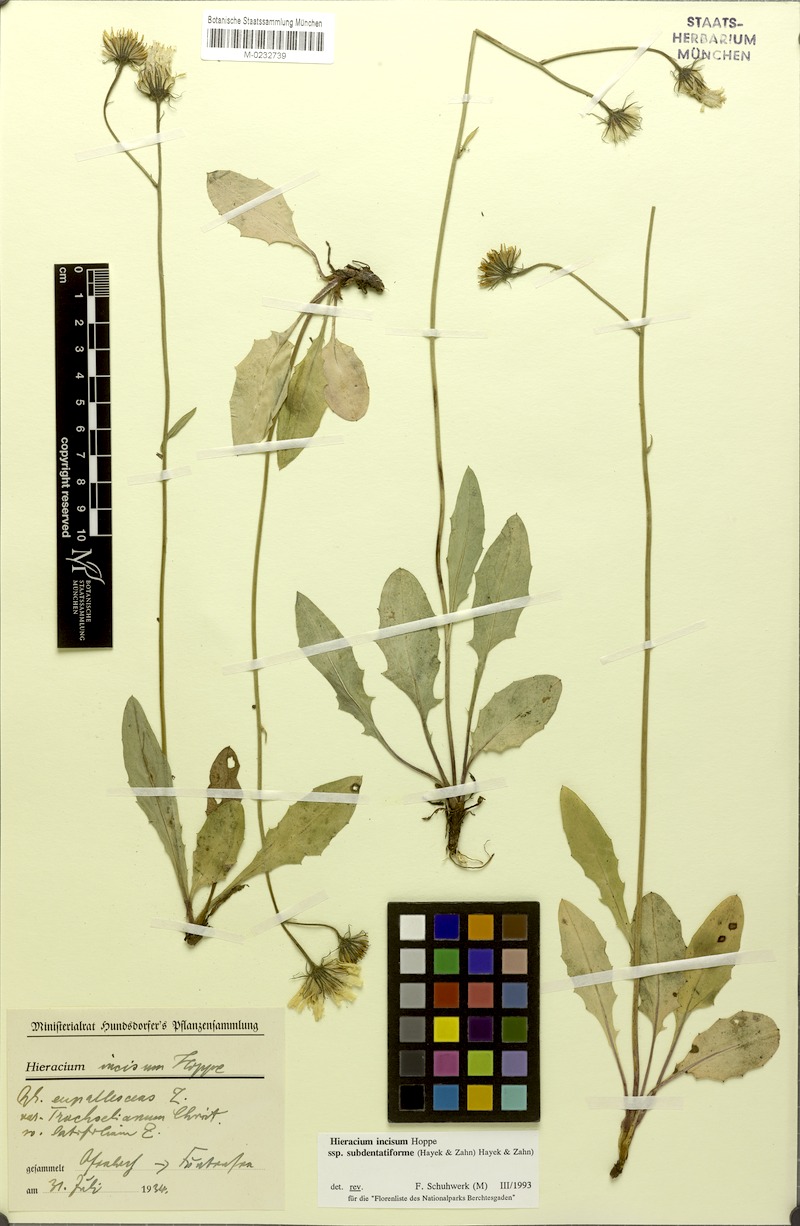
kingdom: Plantae
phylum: Tracheophyta
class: Magnoliopsida
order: Asterales
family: Asteraceae
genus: Hieracium
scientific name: Hieracium incisum
